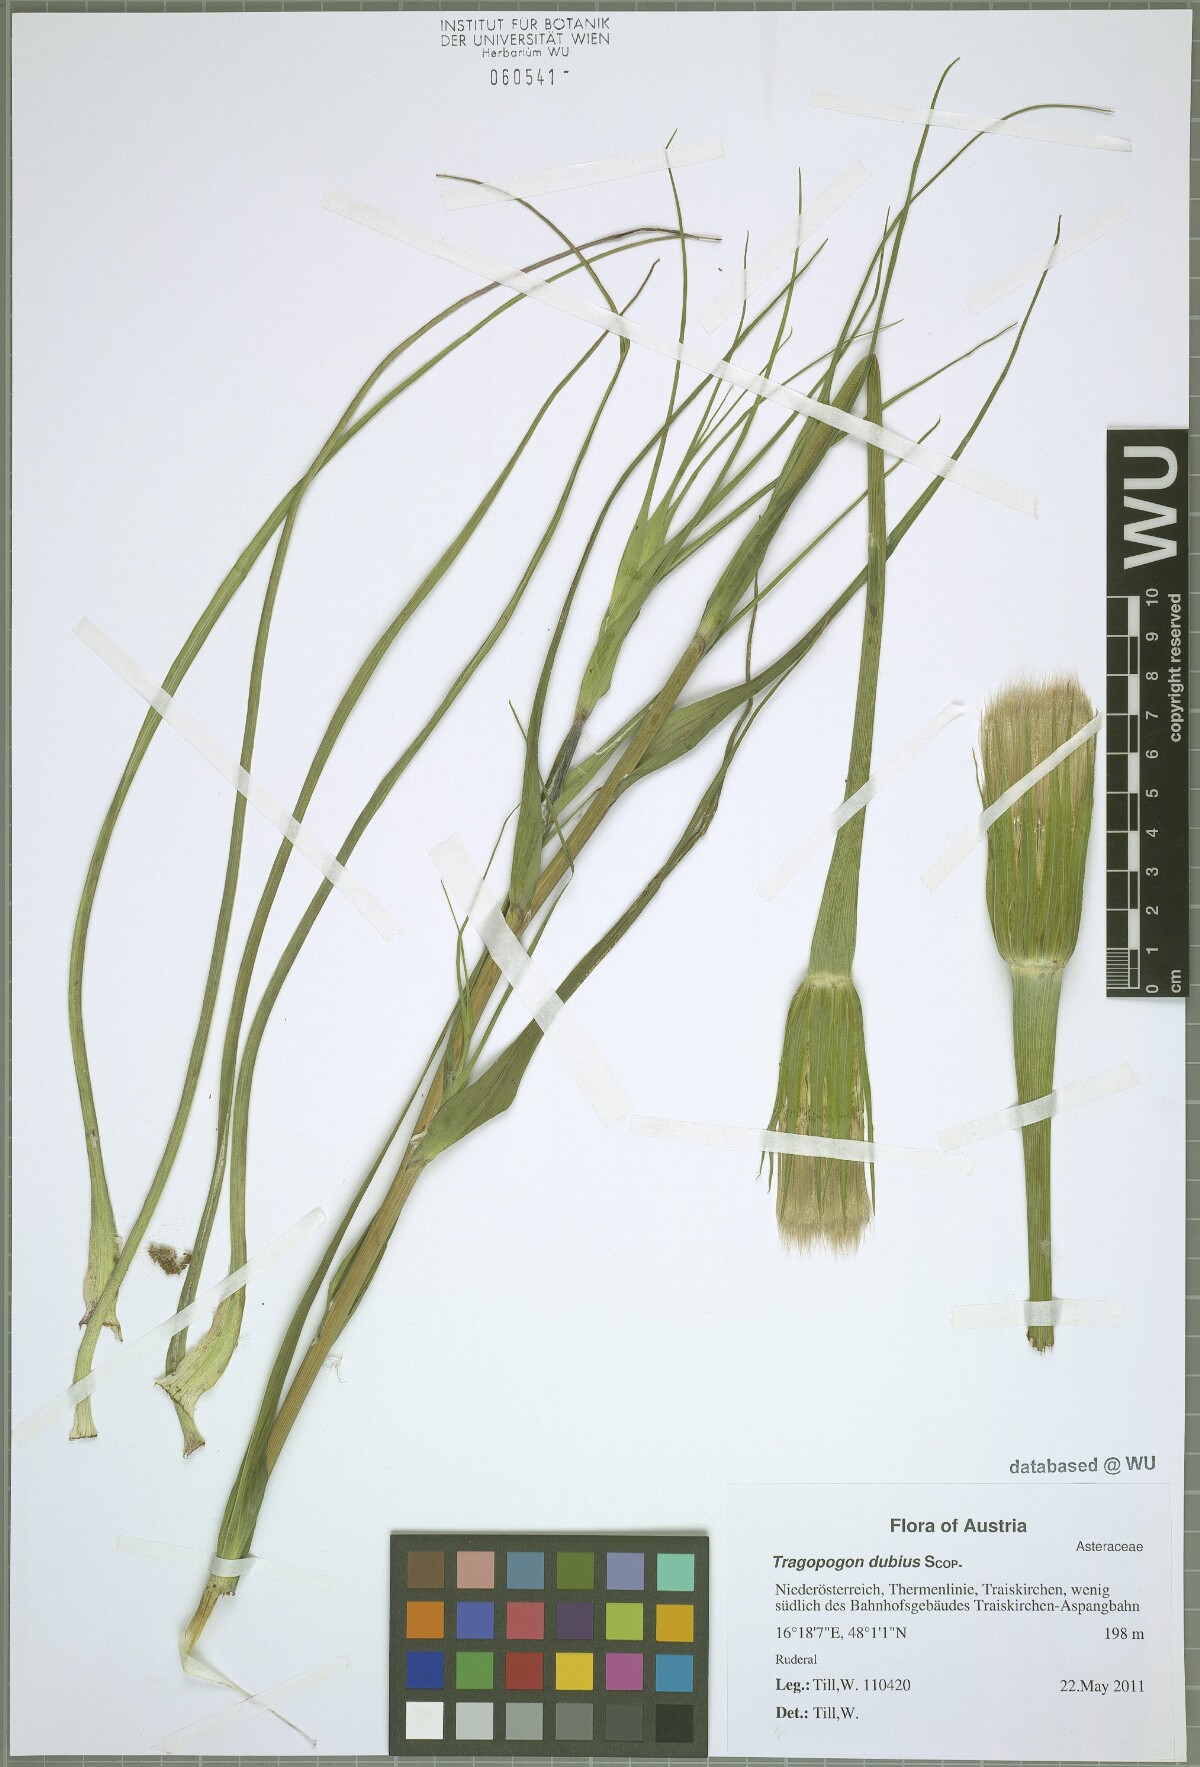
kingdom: Plantae
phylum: Tracheophyta
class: Magnoliopsida
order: Asterales
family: Asteraceae
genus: Tragopogon
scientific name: Tragopogon dubius
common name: Yellow salsify
